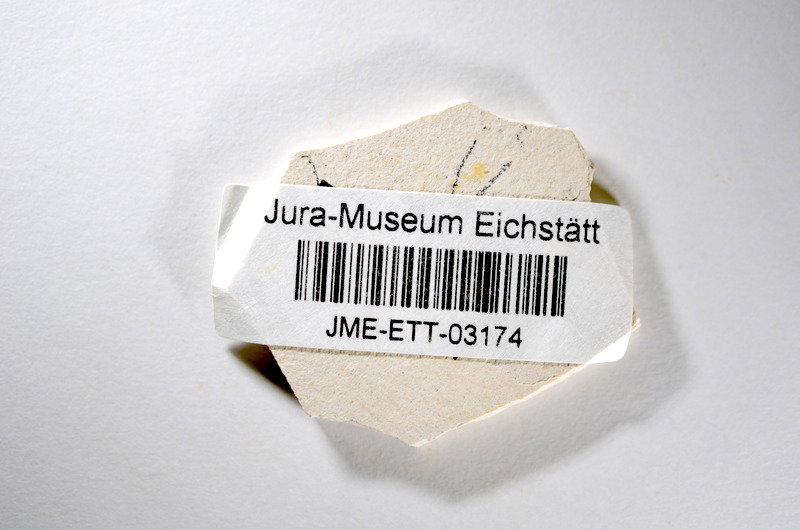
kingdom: Animalia
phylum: Chordata
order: Salmoniformes
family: Orthogonikleithridae
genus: Orthogonikleithrus
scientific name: Orthogonikleithrus hoelli
